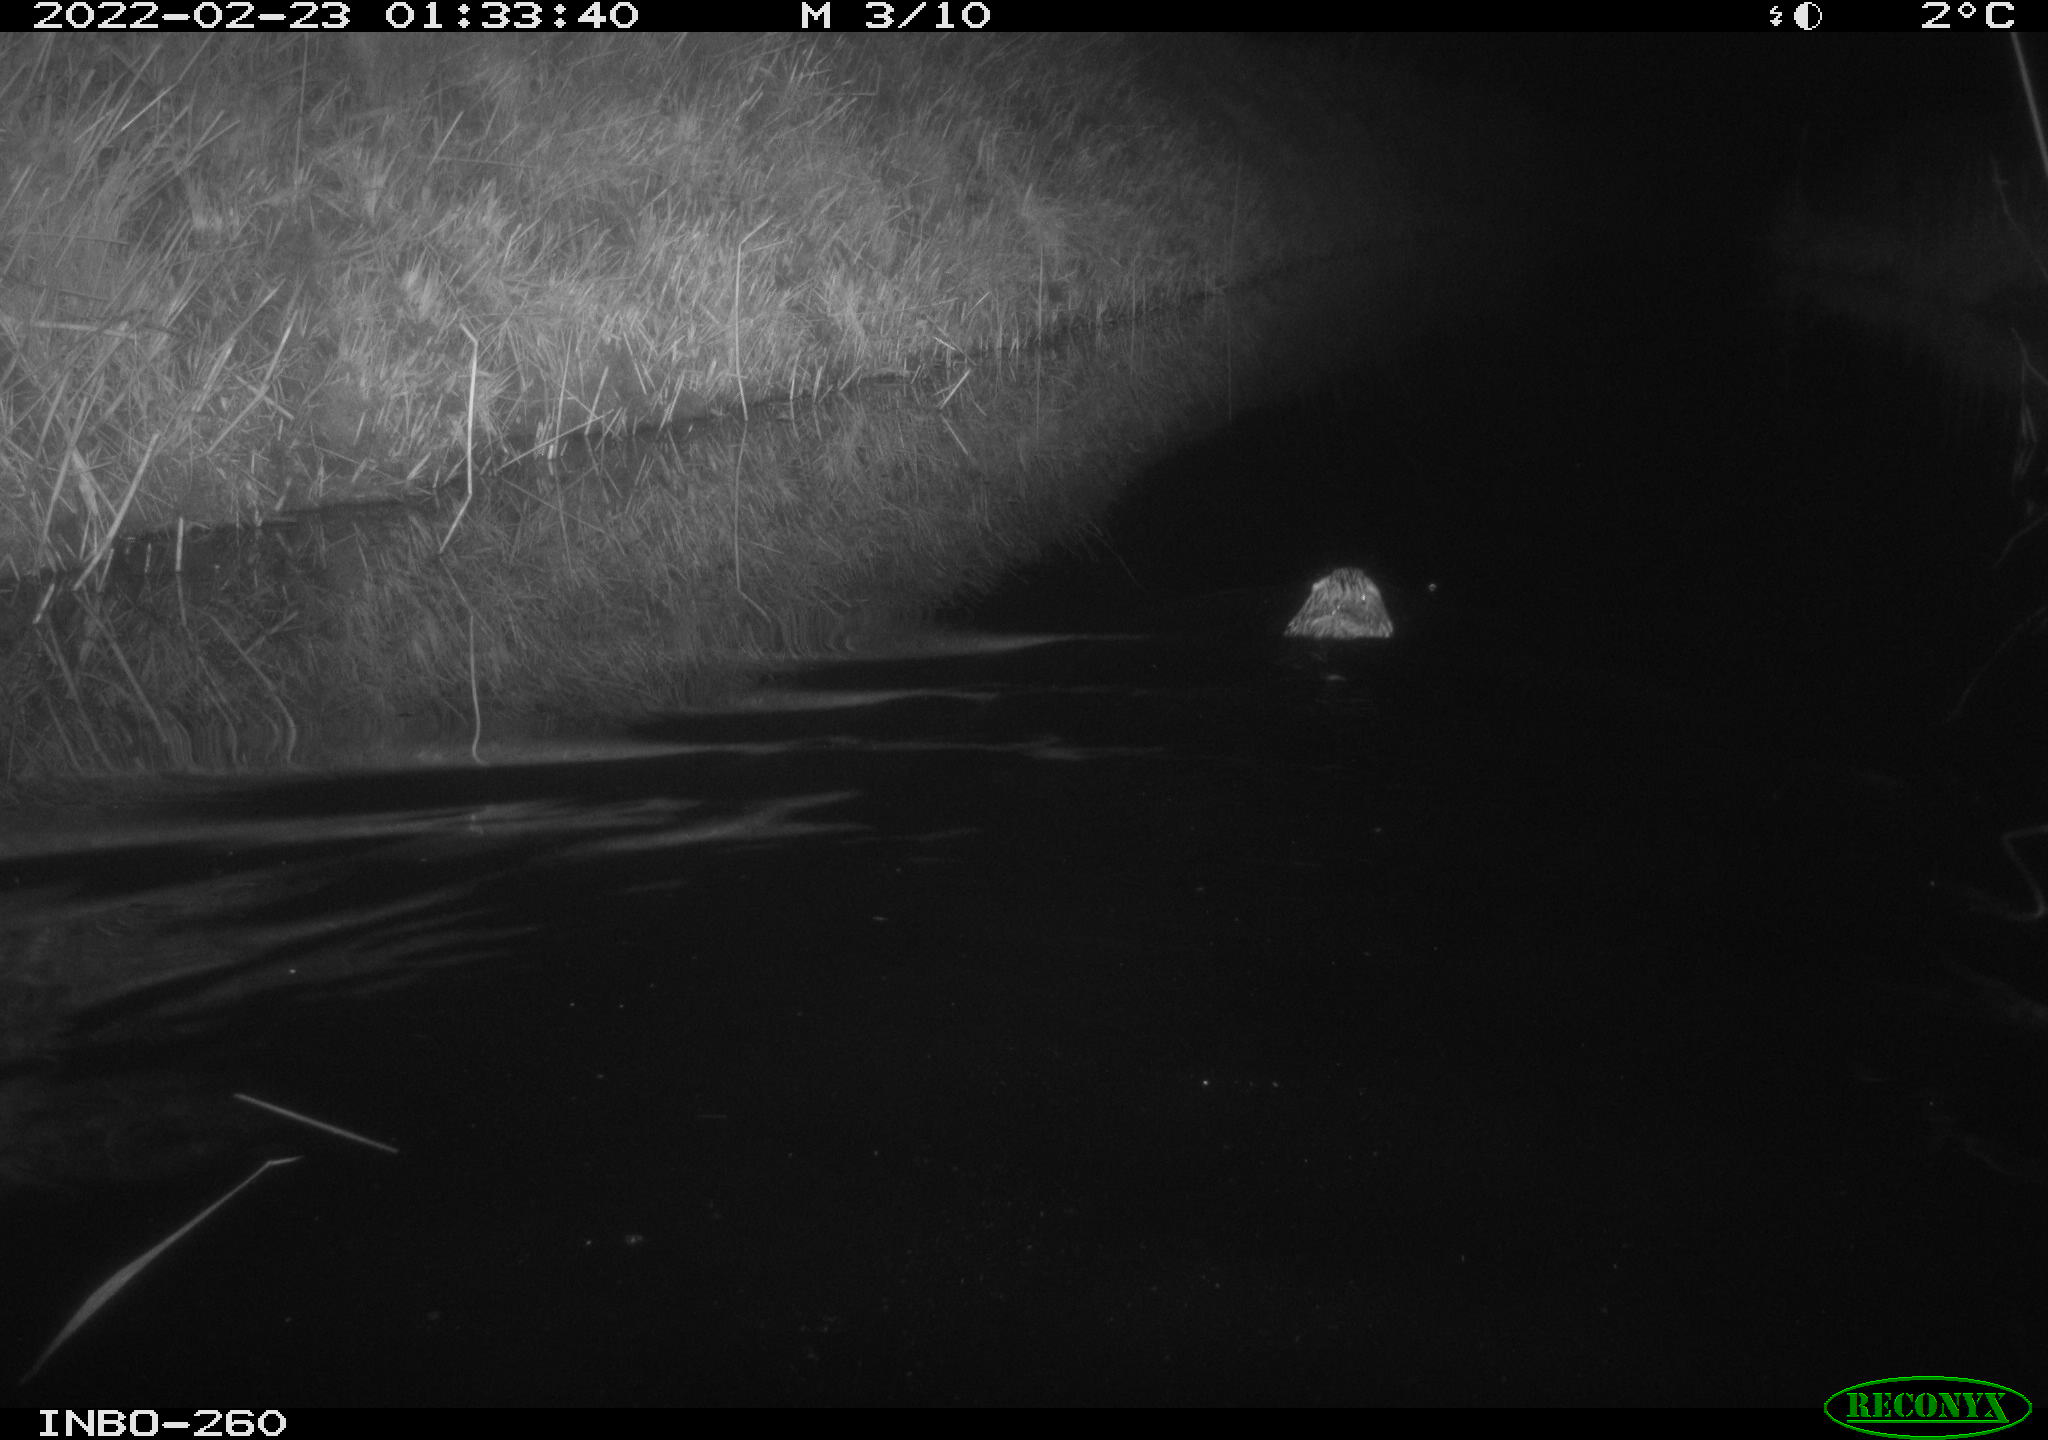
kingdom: Animalia
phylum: Chordata
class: Mammalia
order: Rodentia
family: Cricetidae
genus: Ondatra
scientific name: Ondatra zibethicus
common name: Muskrat
